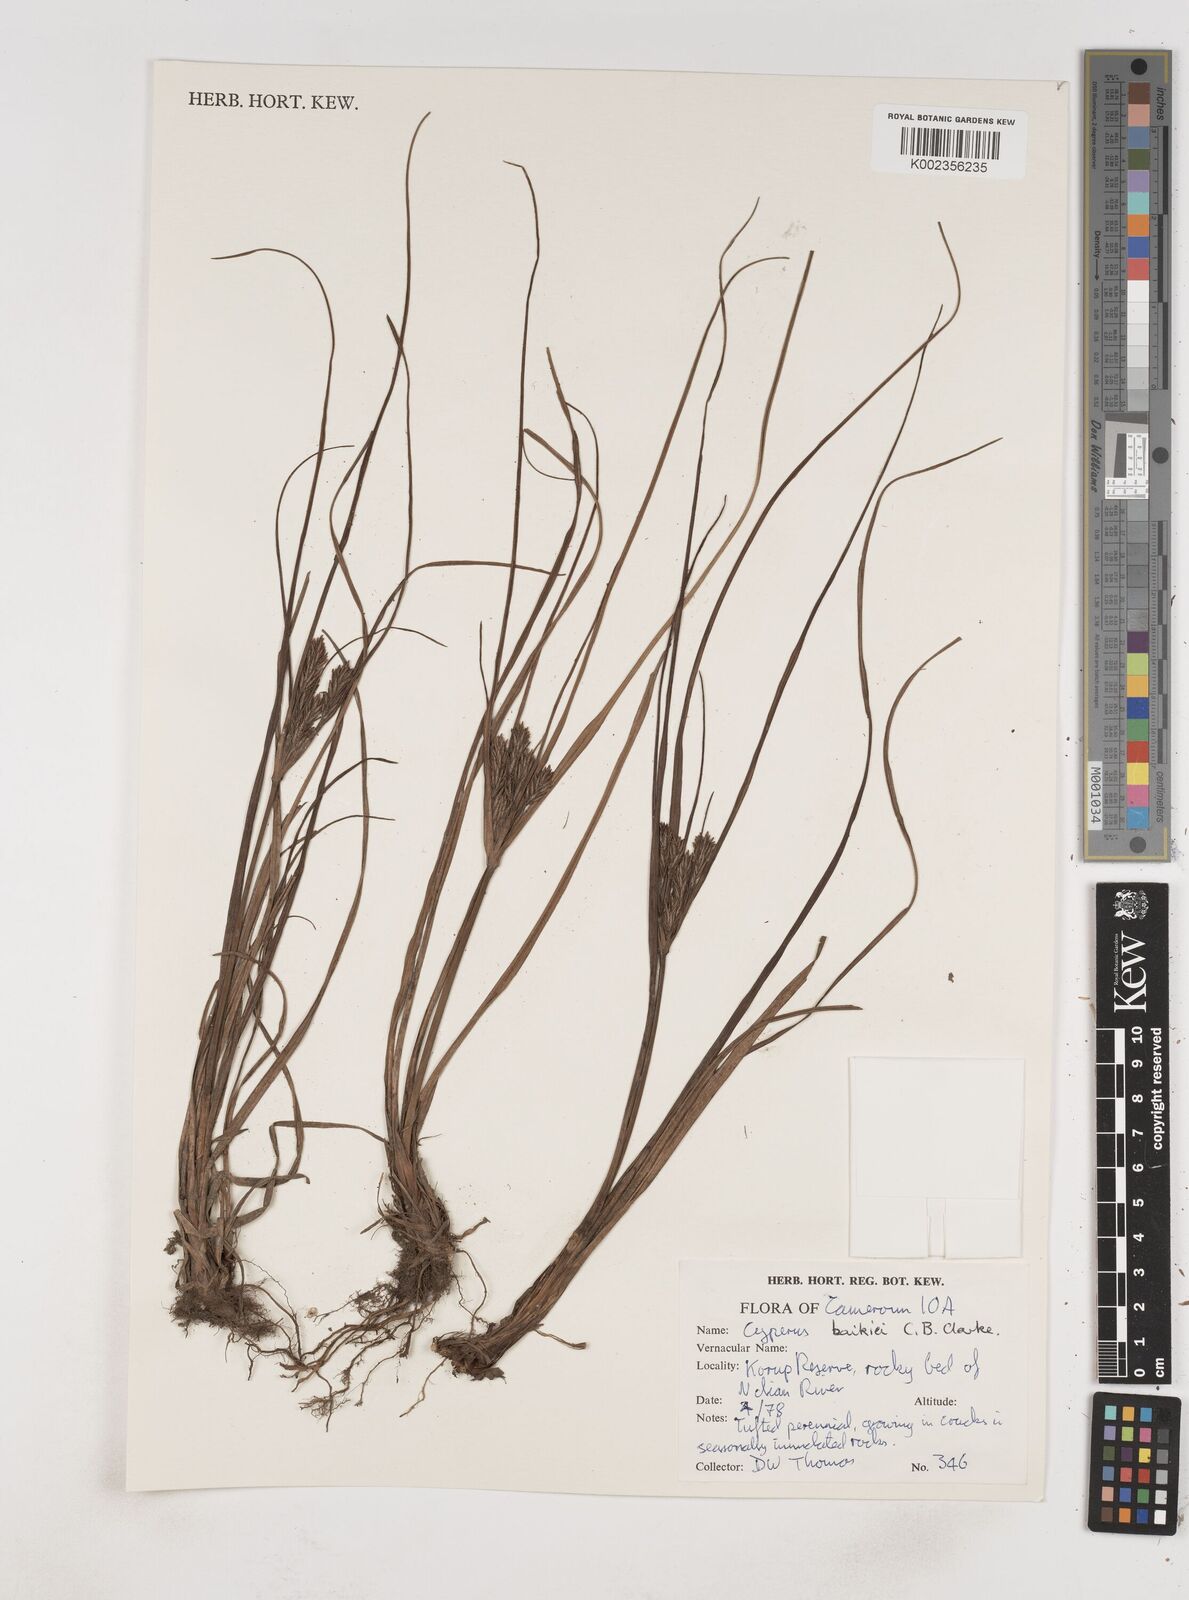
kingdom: Plantae
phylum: Tracheophyta
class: Liliopsida
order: Poales
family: Cyperaceae
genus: Cyperus
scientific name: Cyperus tonkinensis
